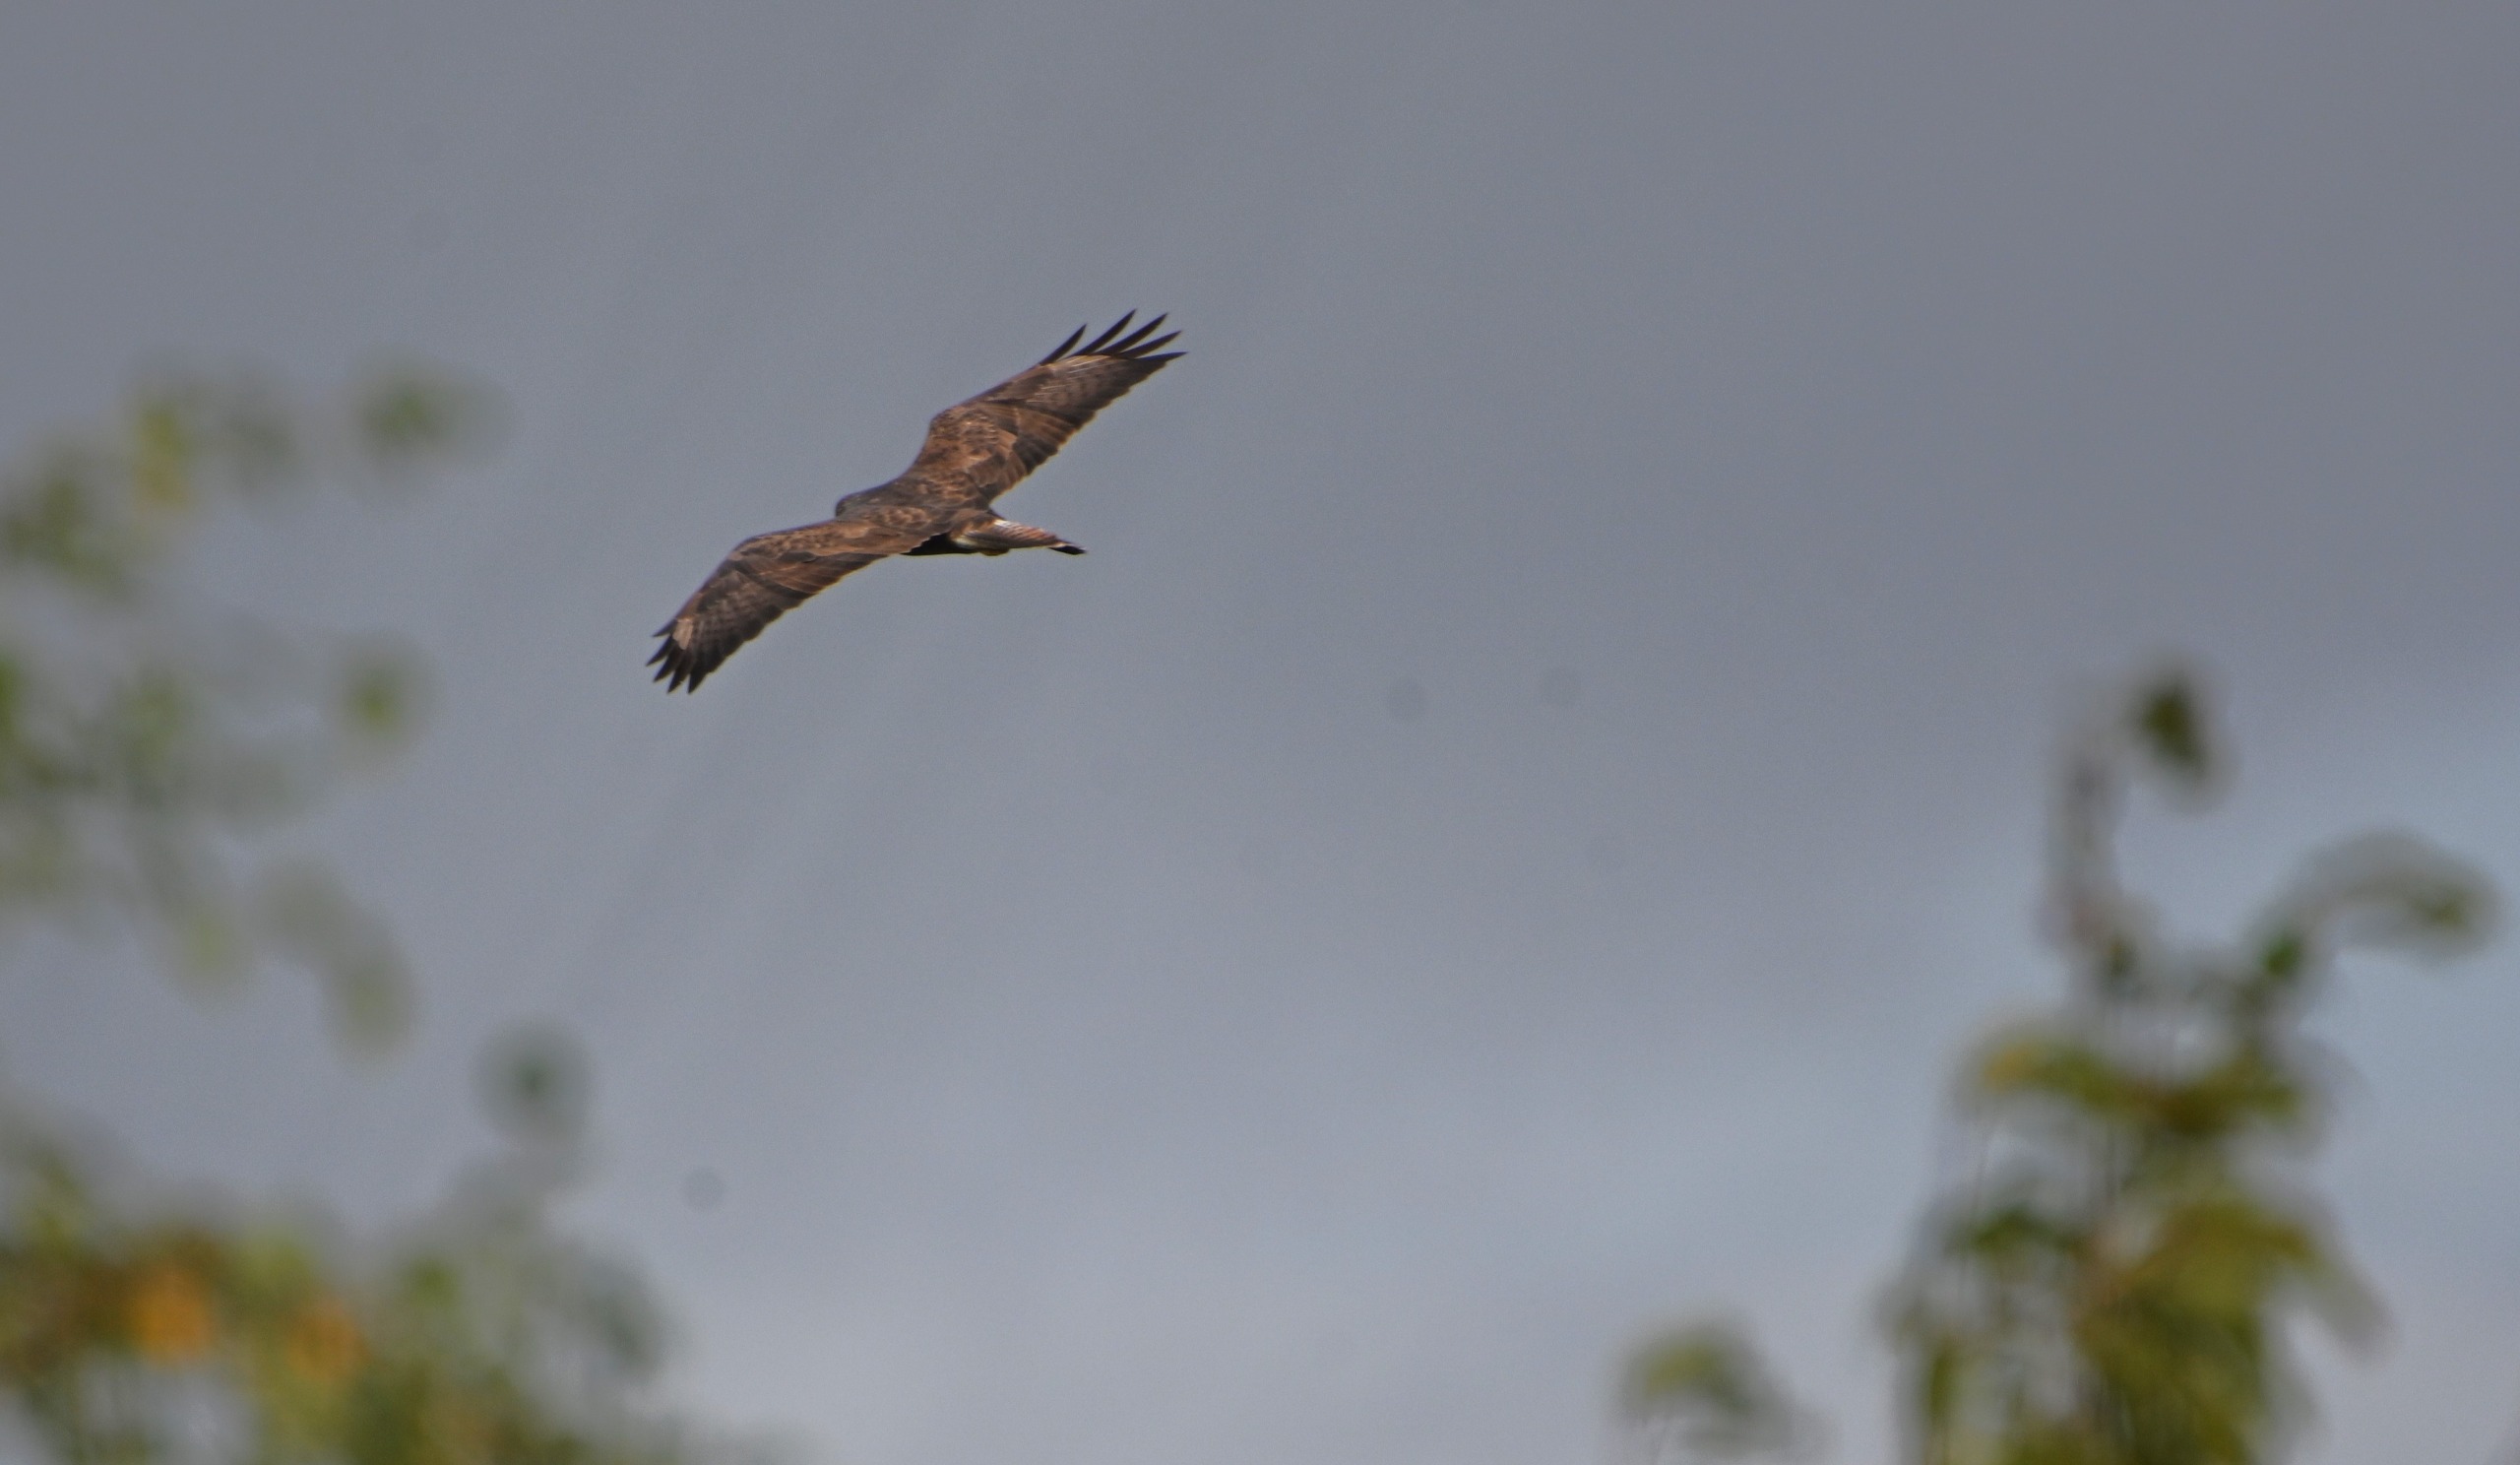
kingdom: Animalia
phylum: Chordata
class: Aves
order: Accipitriformes
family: Accipitridae
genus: Buteo
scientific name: Buteo buteo
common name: Musvåge
